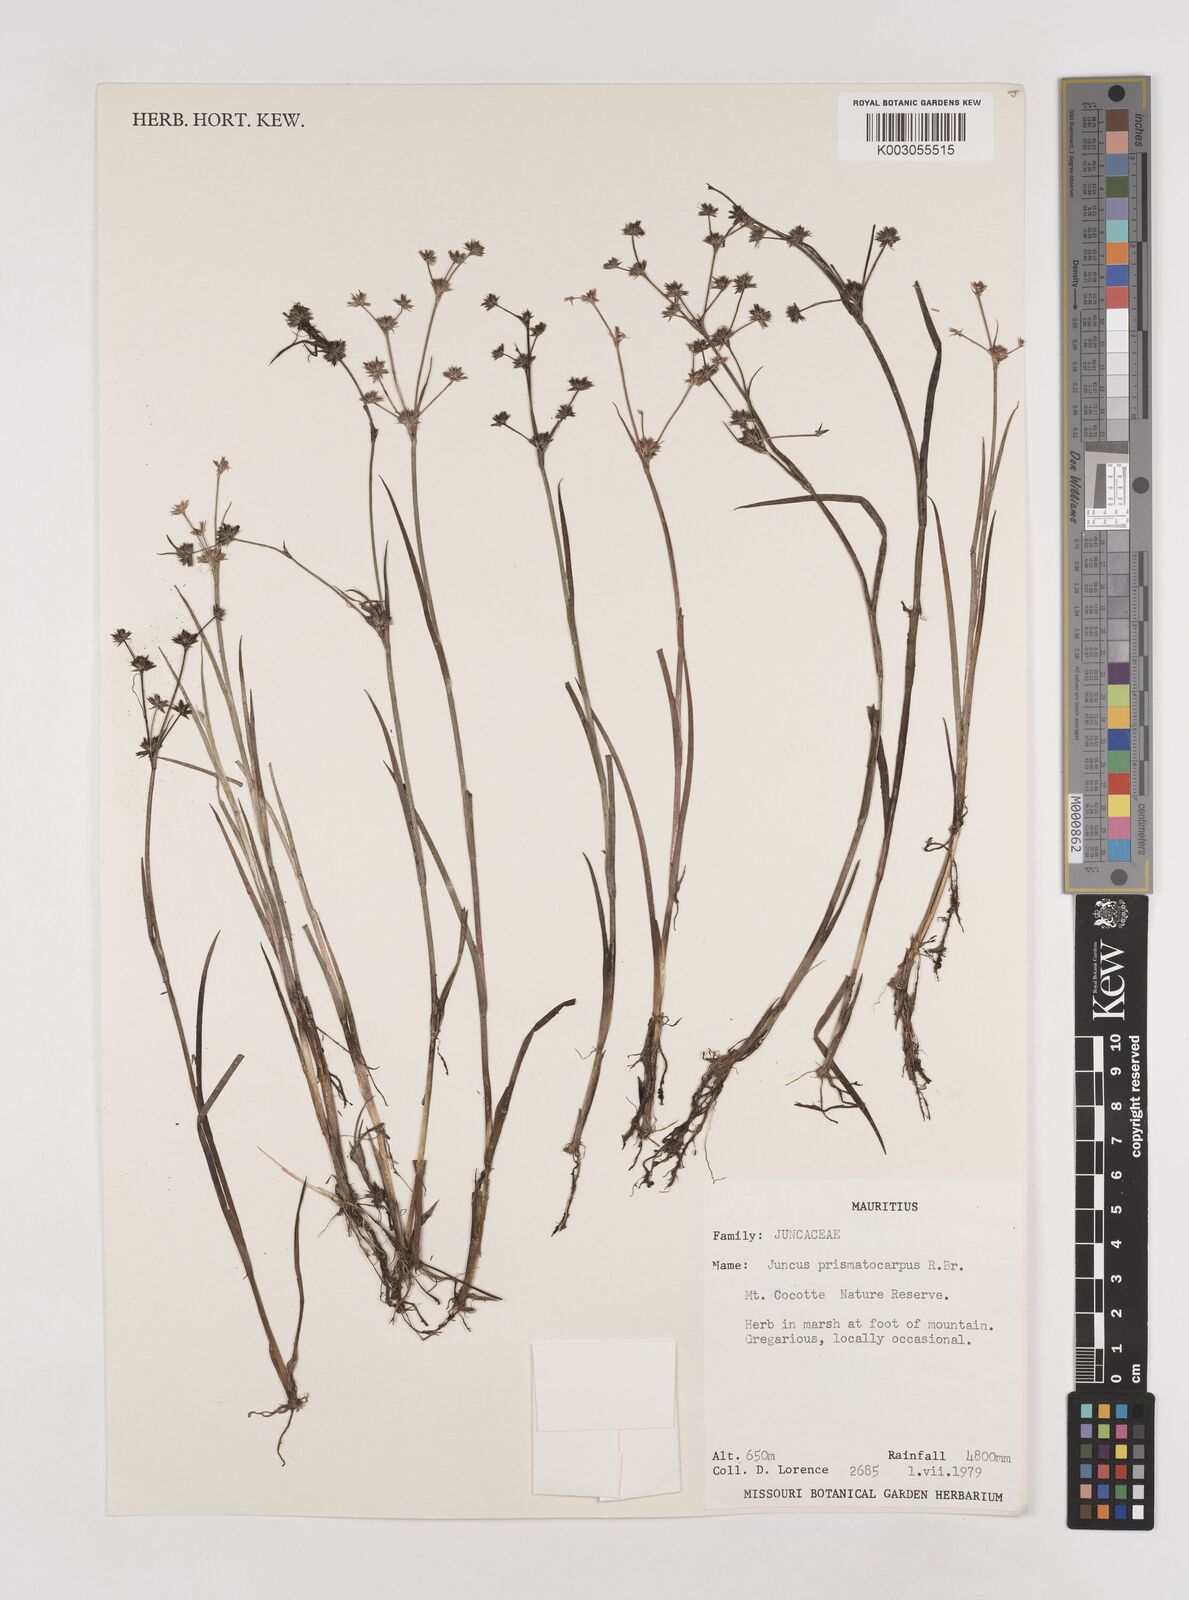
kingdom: Plantae
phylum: Tracheophyta
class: Liliopsida
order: Poales
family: Juncaceae
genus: Juncus
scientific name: Juncus prismatocarpus
